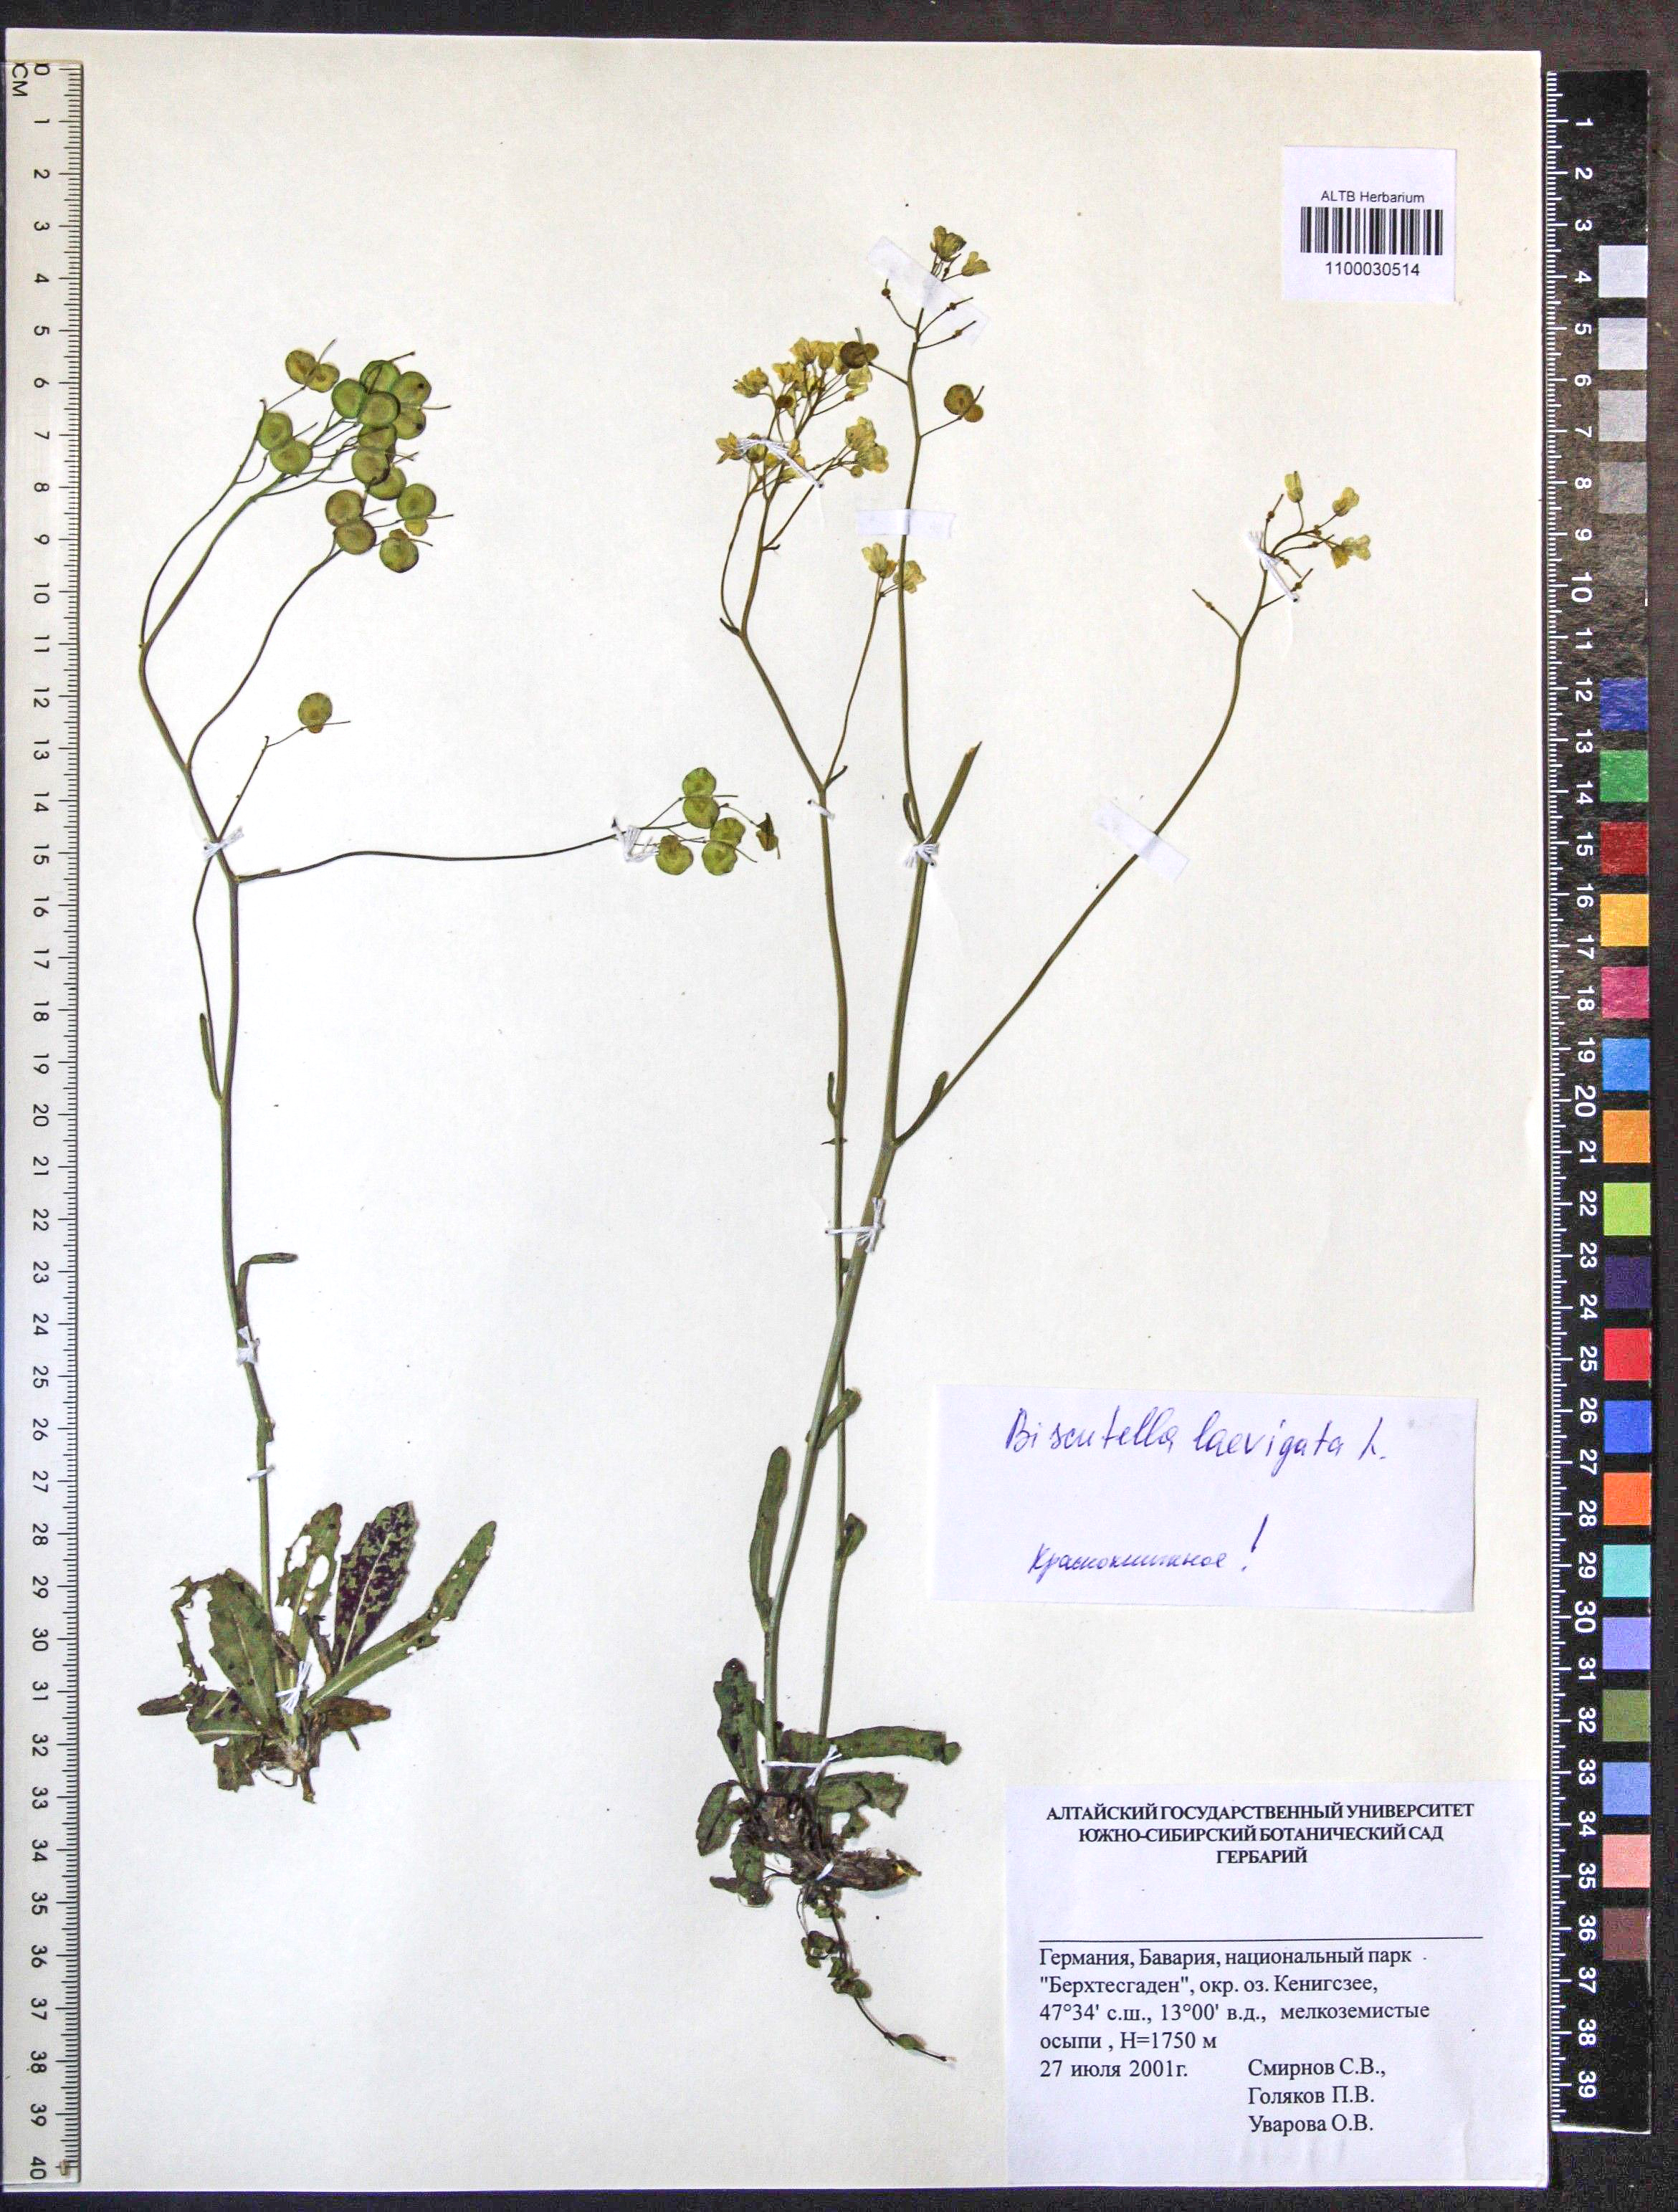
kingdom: Plantae
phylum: Tracheophyta
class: Magnoliopsida
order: Brassicales
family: Brassicaceae
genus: Biscutella
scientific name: Biscutella laevigata
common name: Buckler mustard
